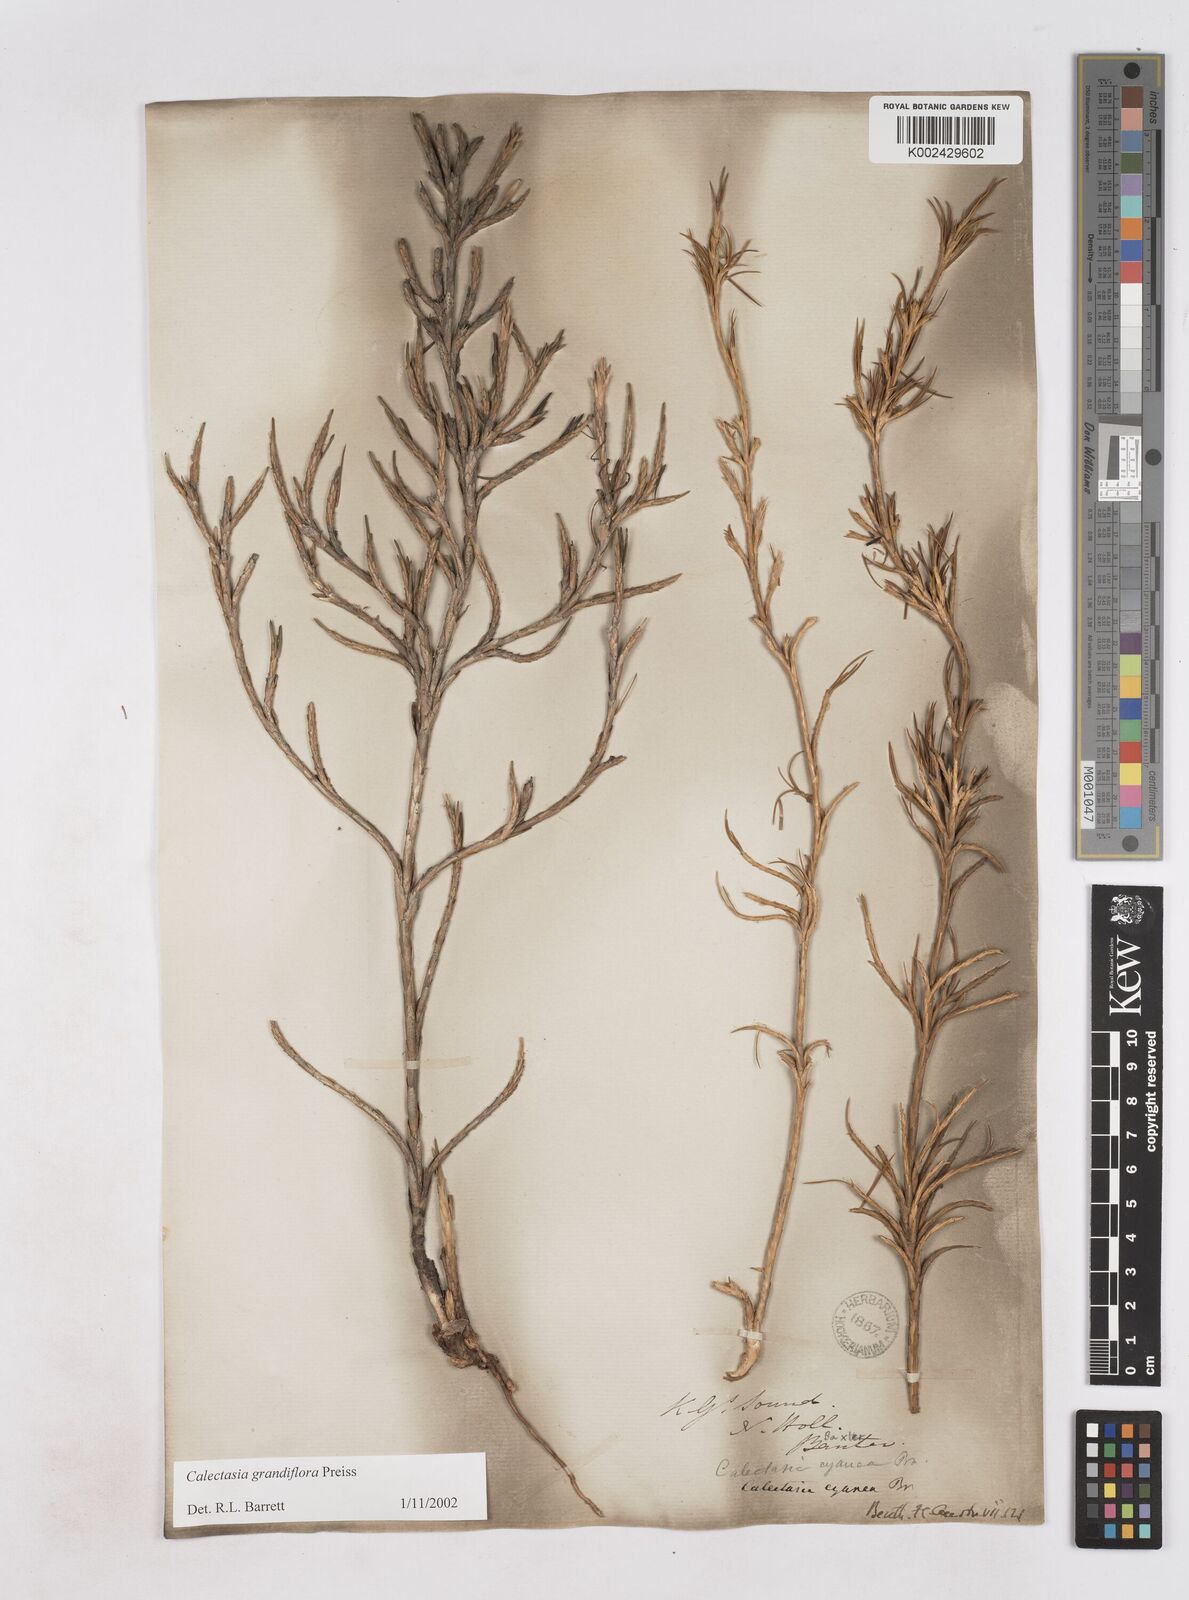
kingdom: Plantae
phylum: Tracheophyta
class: Liliopsida
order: Arecales
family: Dasypogonaceae
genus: Calectasia
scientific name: Calectasia grandiflora
